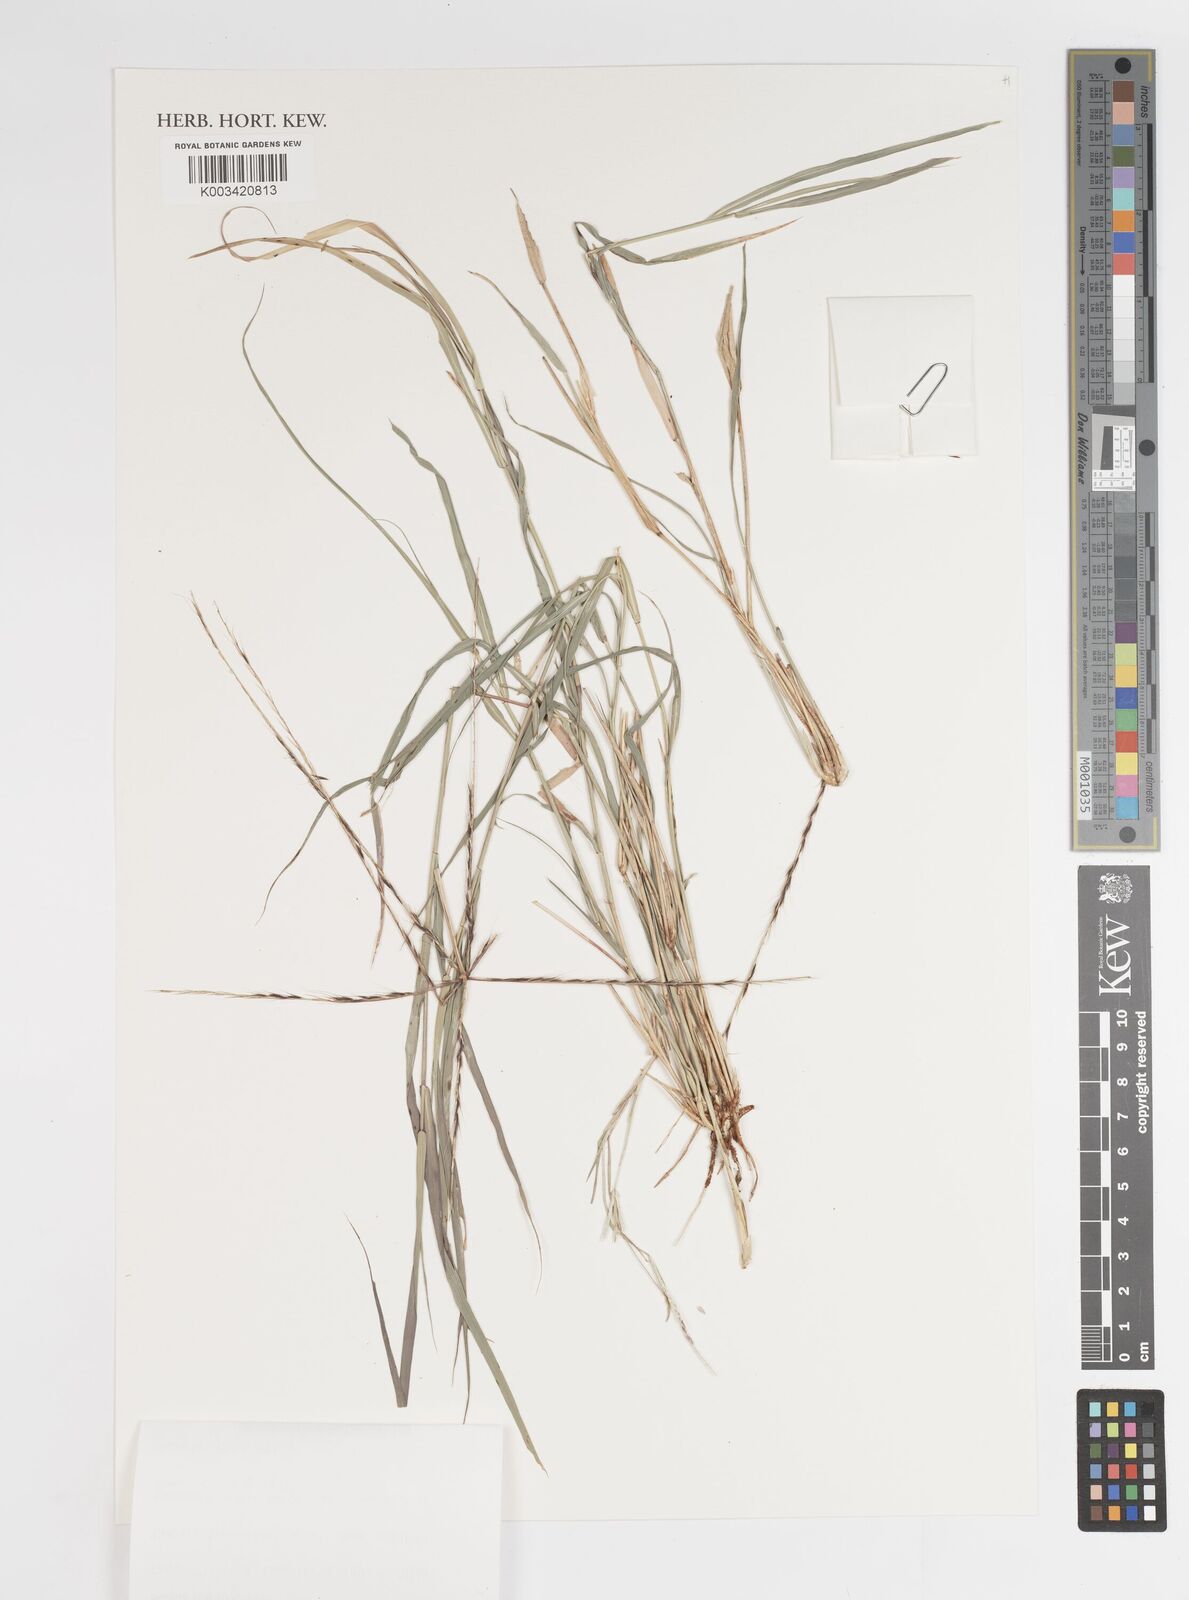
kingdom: Plantae
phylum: Tracheophyta
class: Liliopsida
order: Poales
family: Poaceae
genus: Enteropogon
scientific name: Enteropogon acicularis
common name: Curly windmill grass
